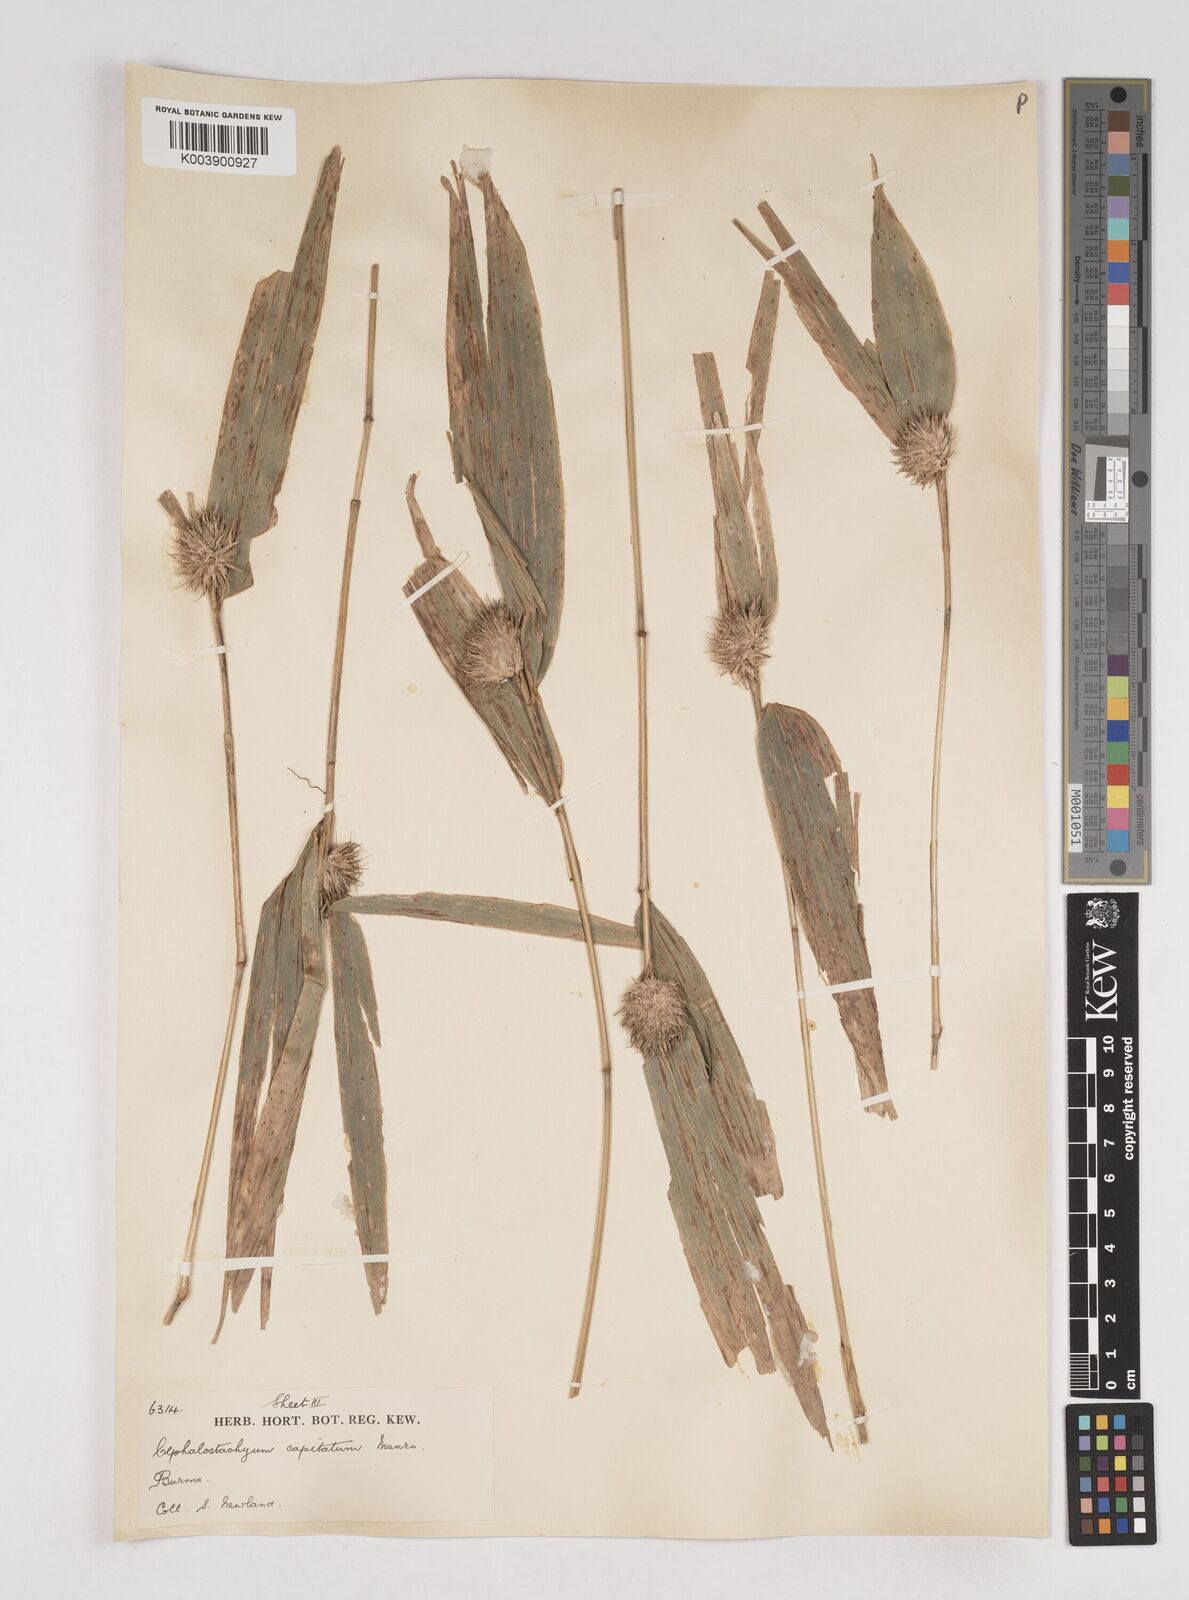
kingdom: Plantae
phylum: Tracheophyta
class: Liliopsida
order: Poales
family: Poaceae
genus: Cephalostachyum
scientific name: Cephalostachyum capitatum
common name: Hollow bamboo
